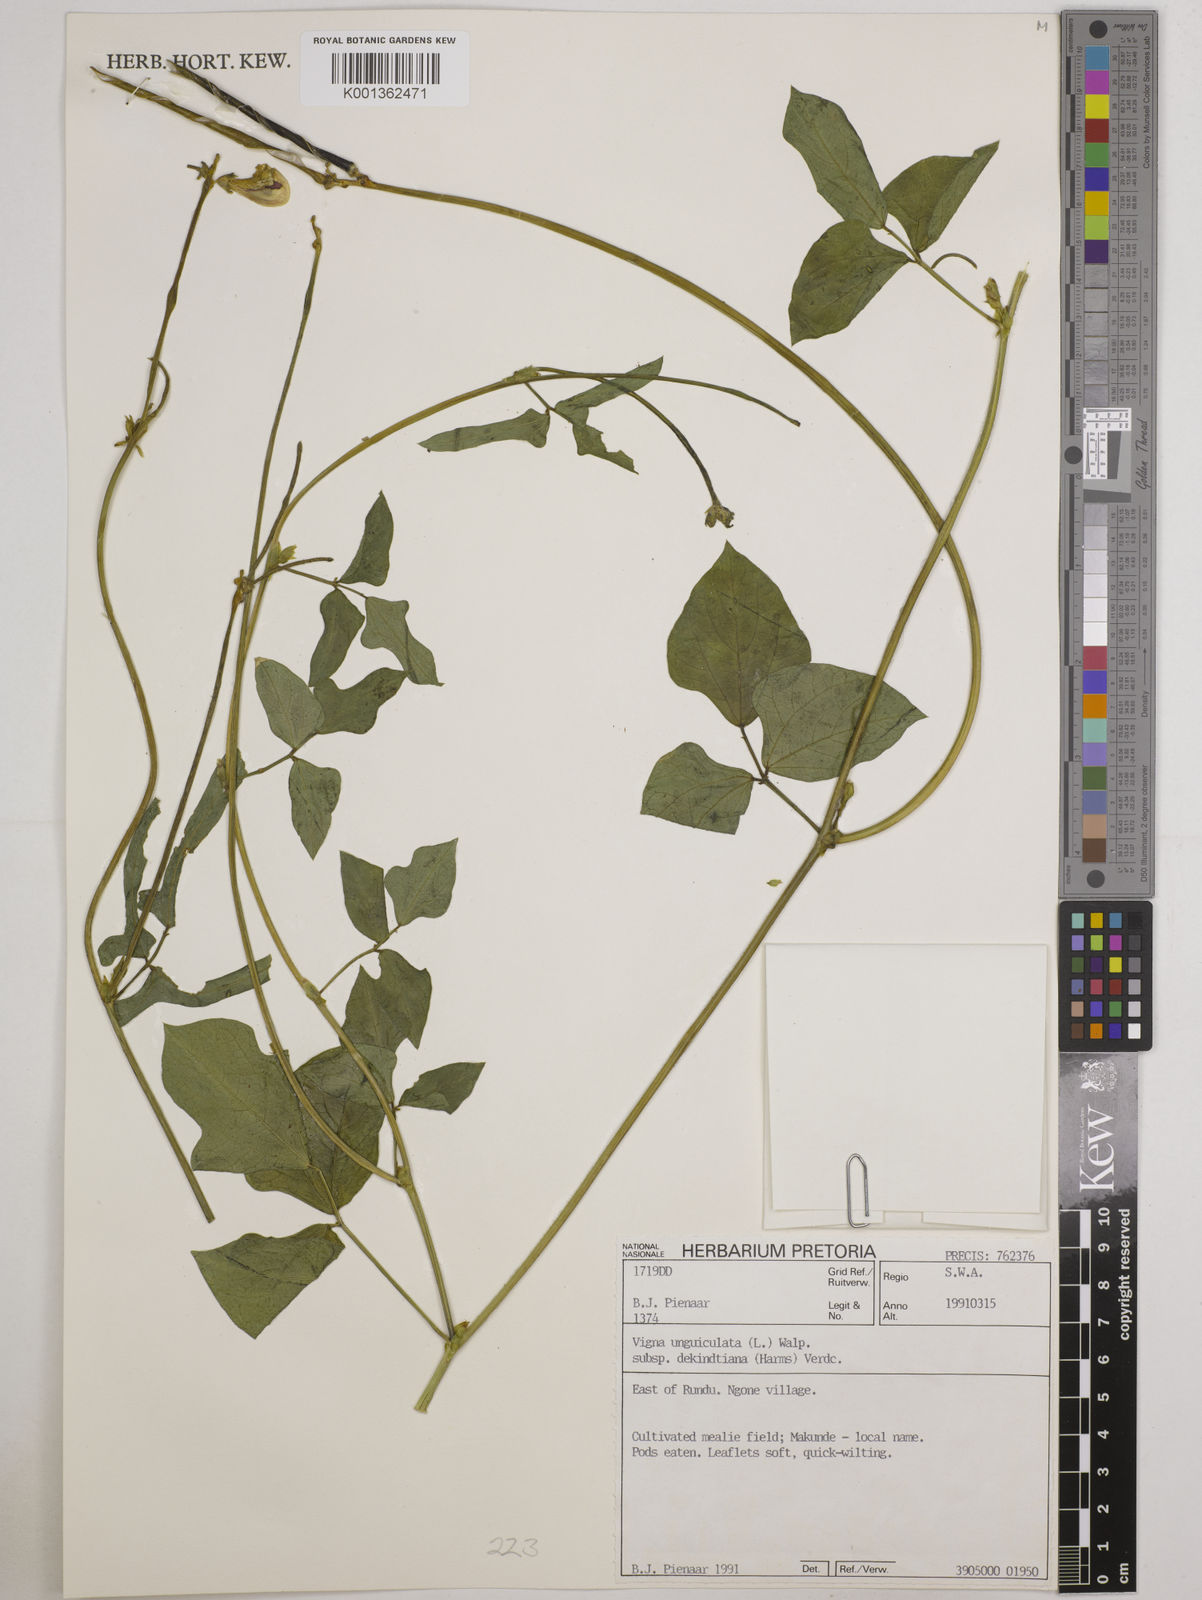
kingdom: Plantae
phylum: Tracheophyta
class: Magnoliopsida
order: Fabales
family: Fabaceae
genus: Vigna
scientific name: Vigna
